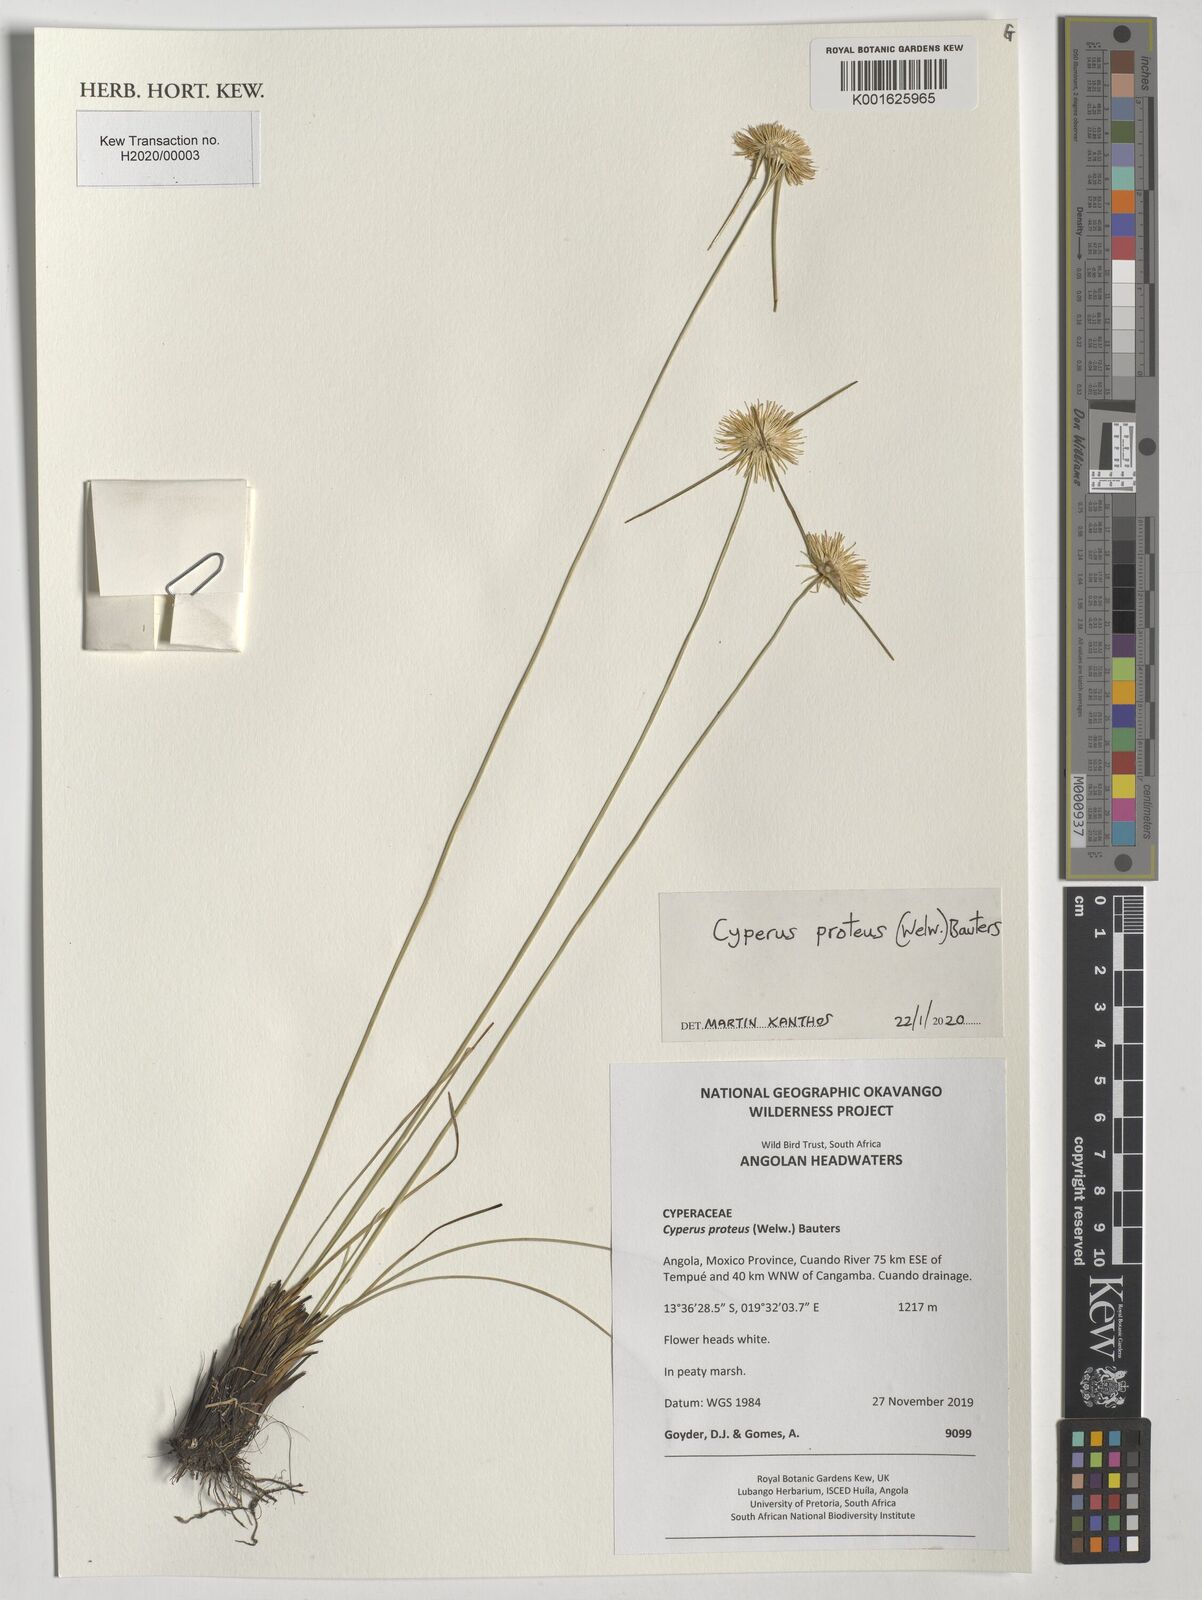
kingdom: Plantae
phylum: Tracheophyta
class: Liliopsida
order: Poales
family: Cyperaceae
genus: Cyperus
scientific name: Cyperus proteus
